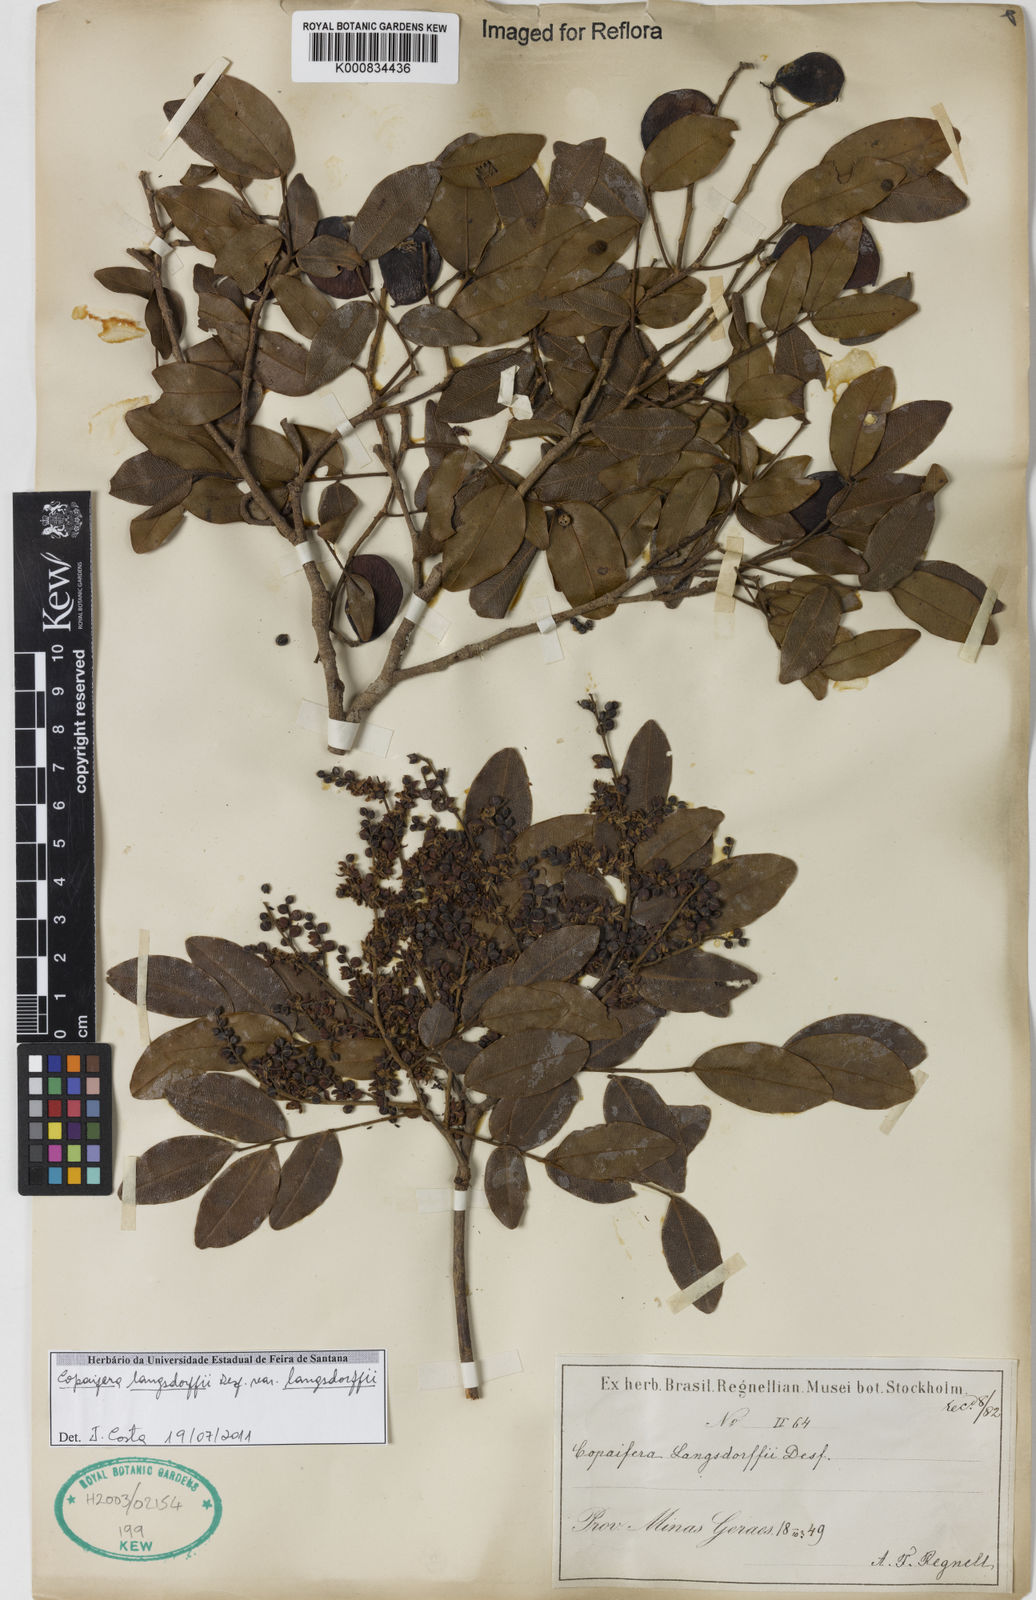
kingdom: Plantae
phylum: Tracheophyta
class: Magnoliopsida
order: Fabales
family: Fabaceae
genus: Copaifera
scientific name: Copaifera langsdorffii
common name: Brazilian diesel tree
